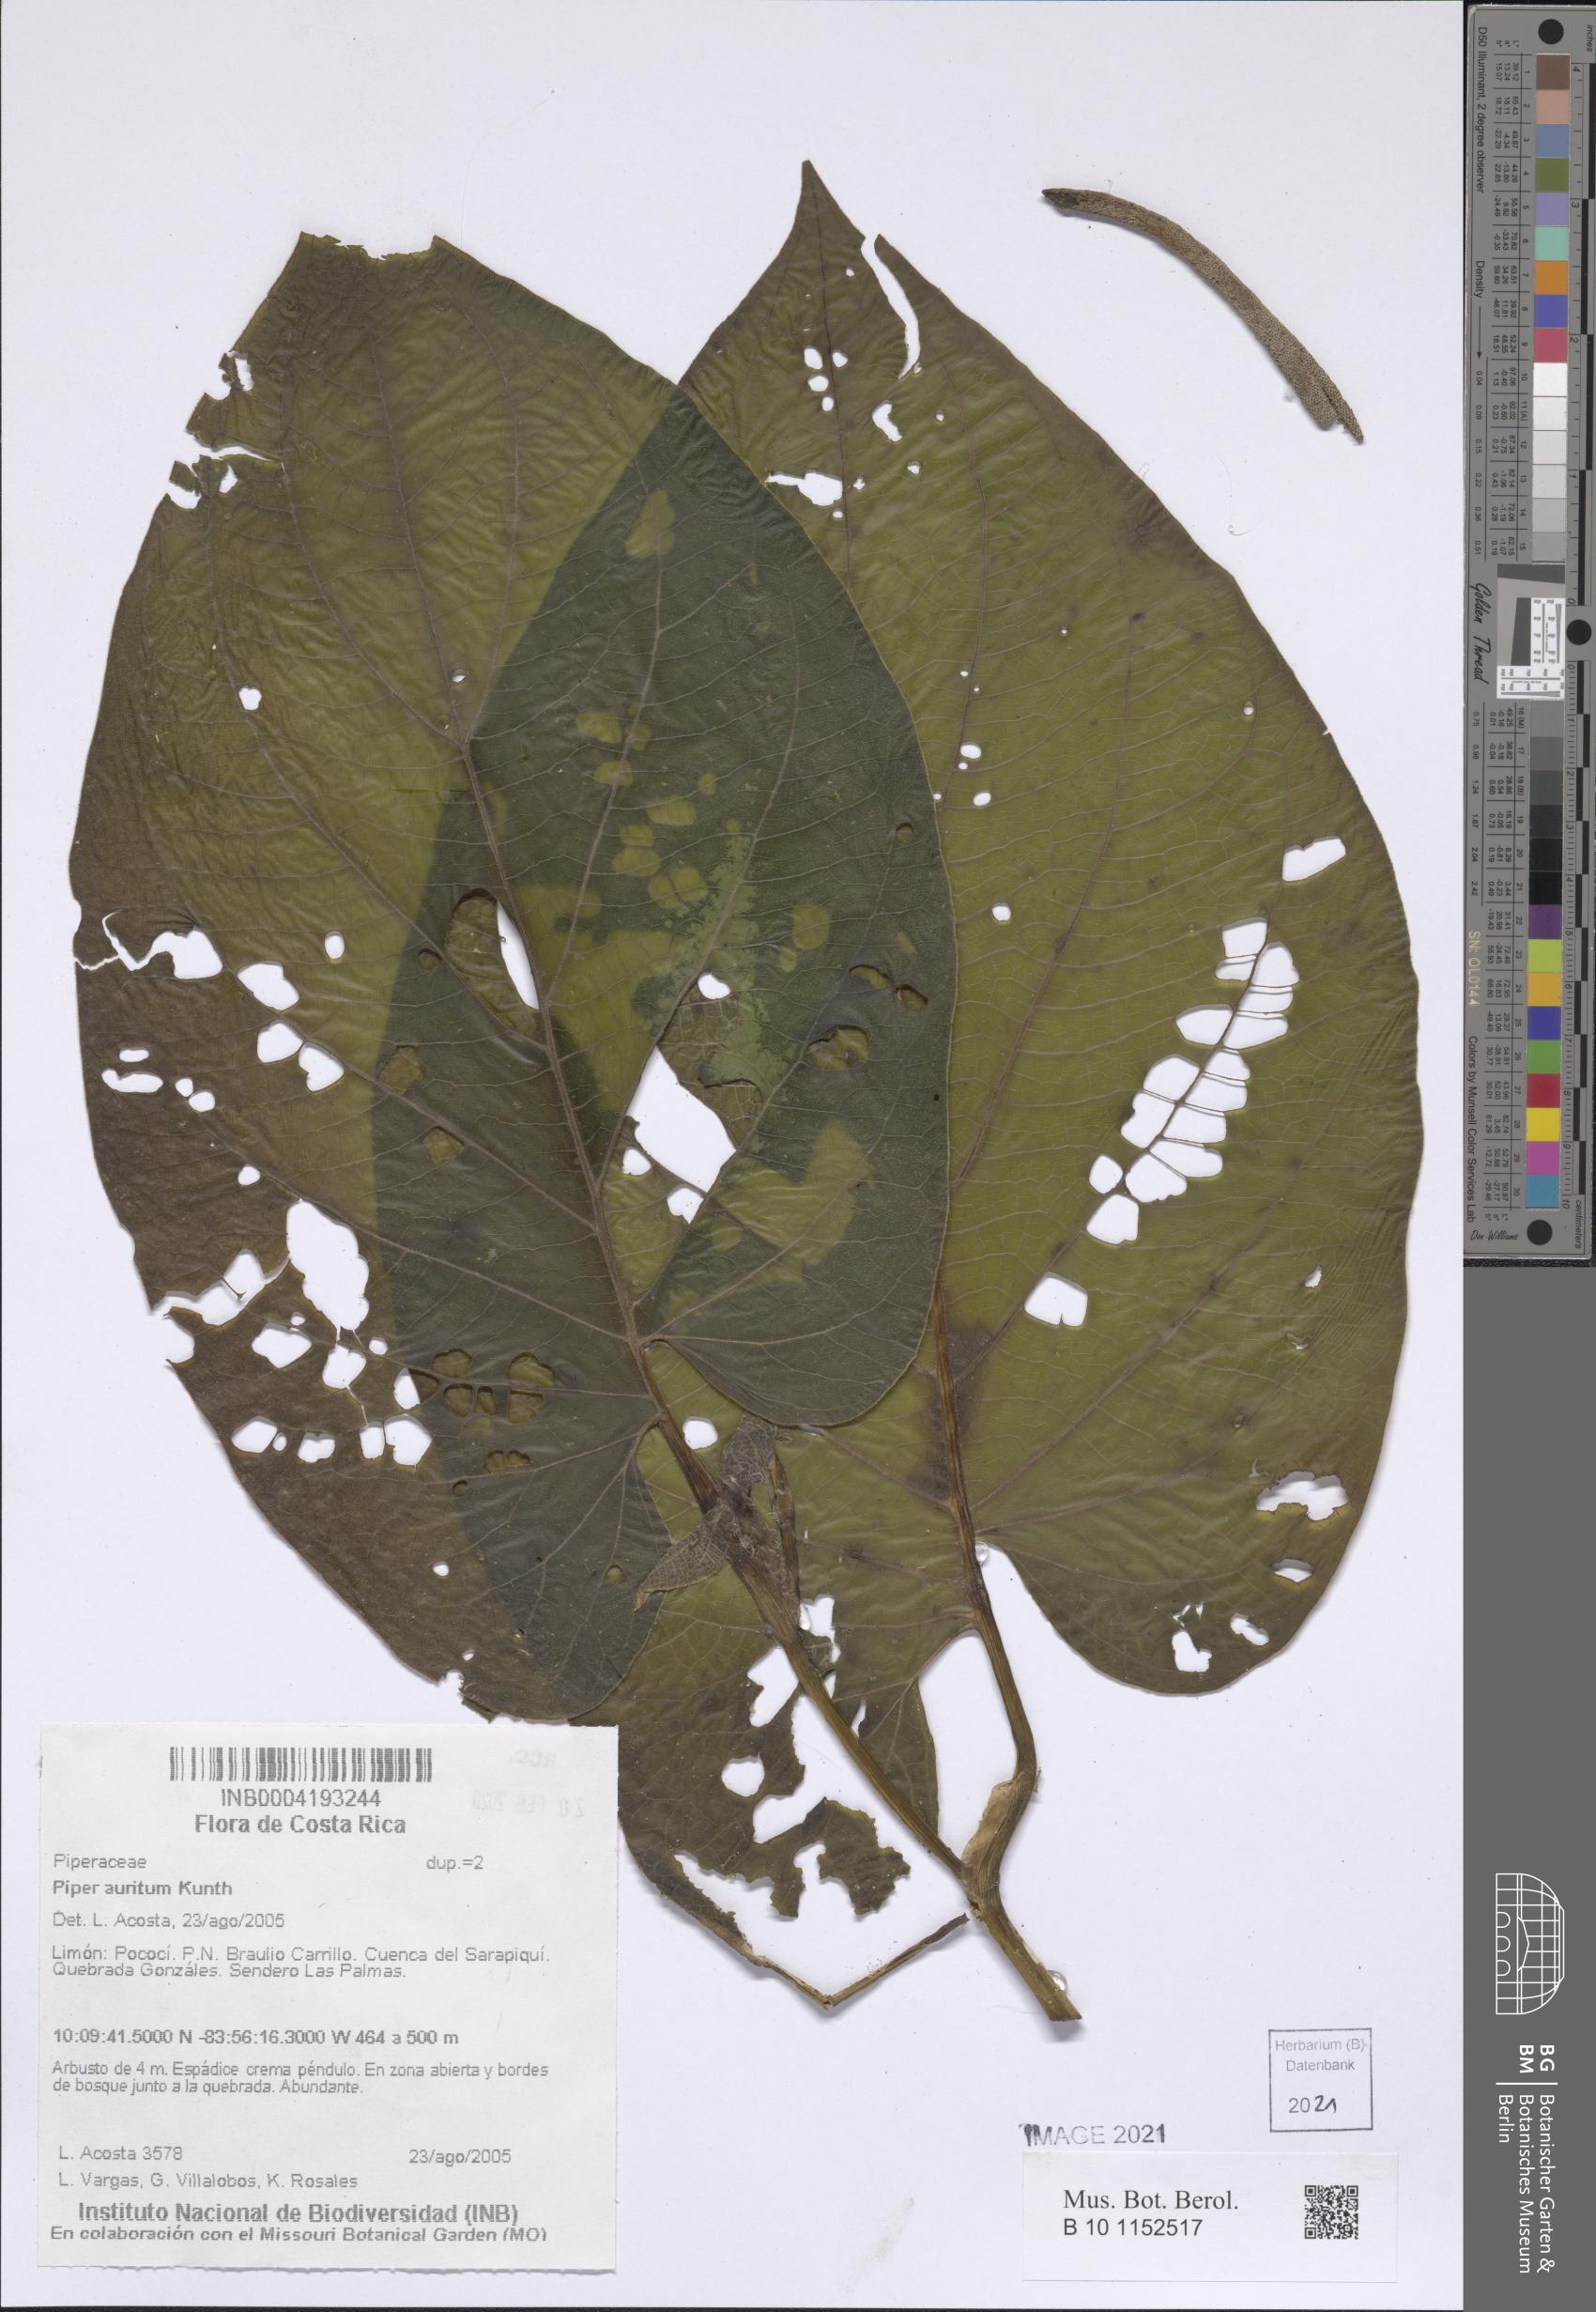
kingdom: Plantae
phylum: Tracheophyta
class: Magnoliopsida
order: Piperales
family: Piperaceae
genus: Piper
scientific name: Piper auritum
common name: Vera cruz pepper
